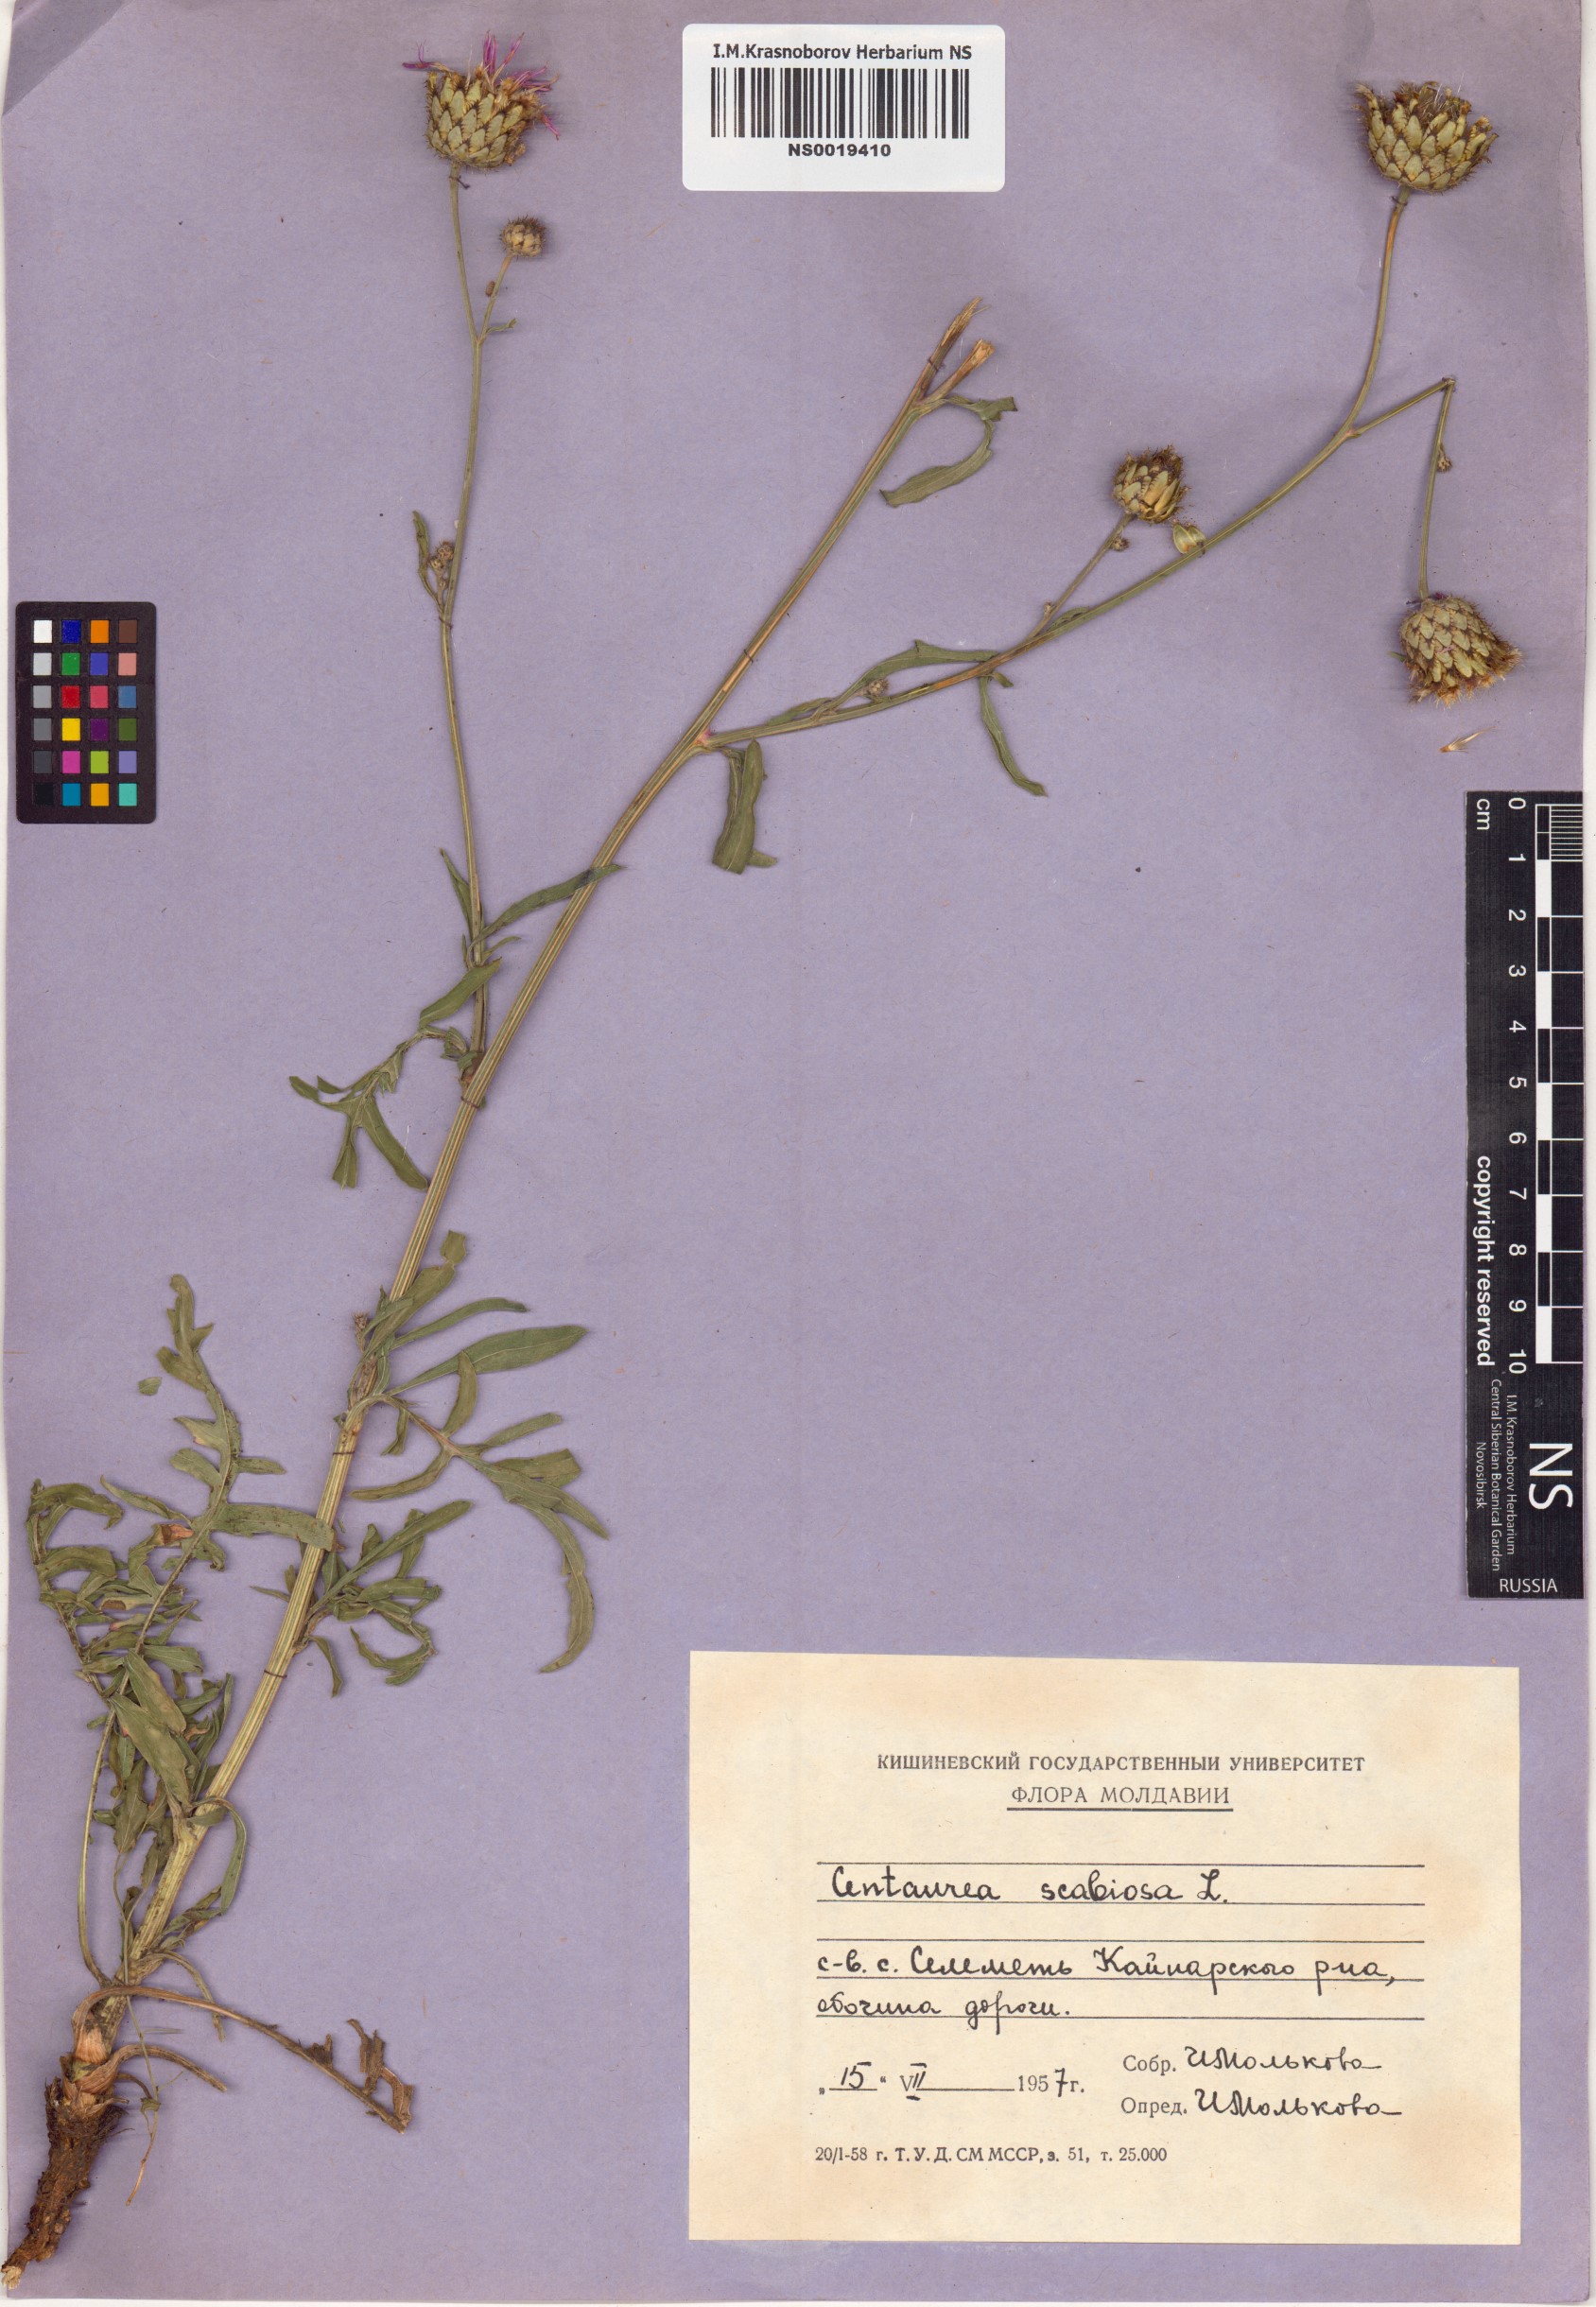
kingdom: Plantae
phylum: Tracheophyta
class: Magnoliopsida
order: Asterales
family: Asteraceae
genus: Centaurea
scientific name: Centaurea scabiosa
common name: Greater knapweed
